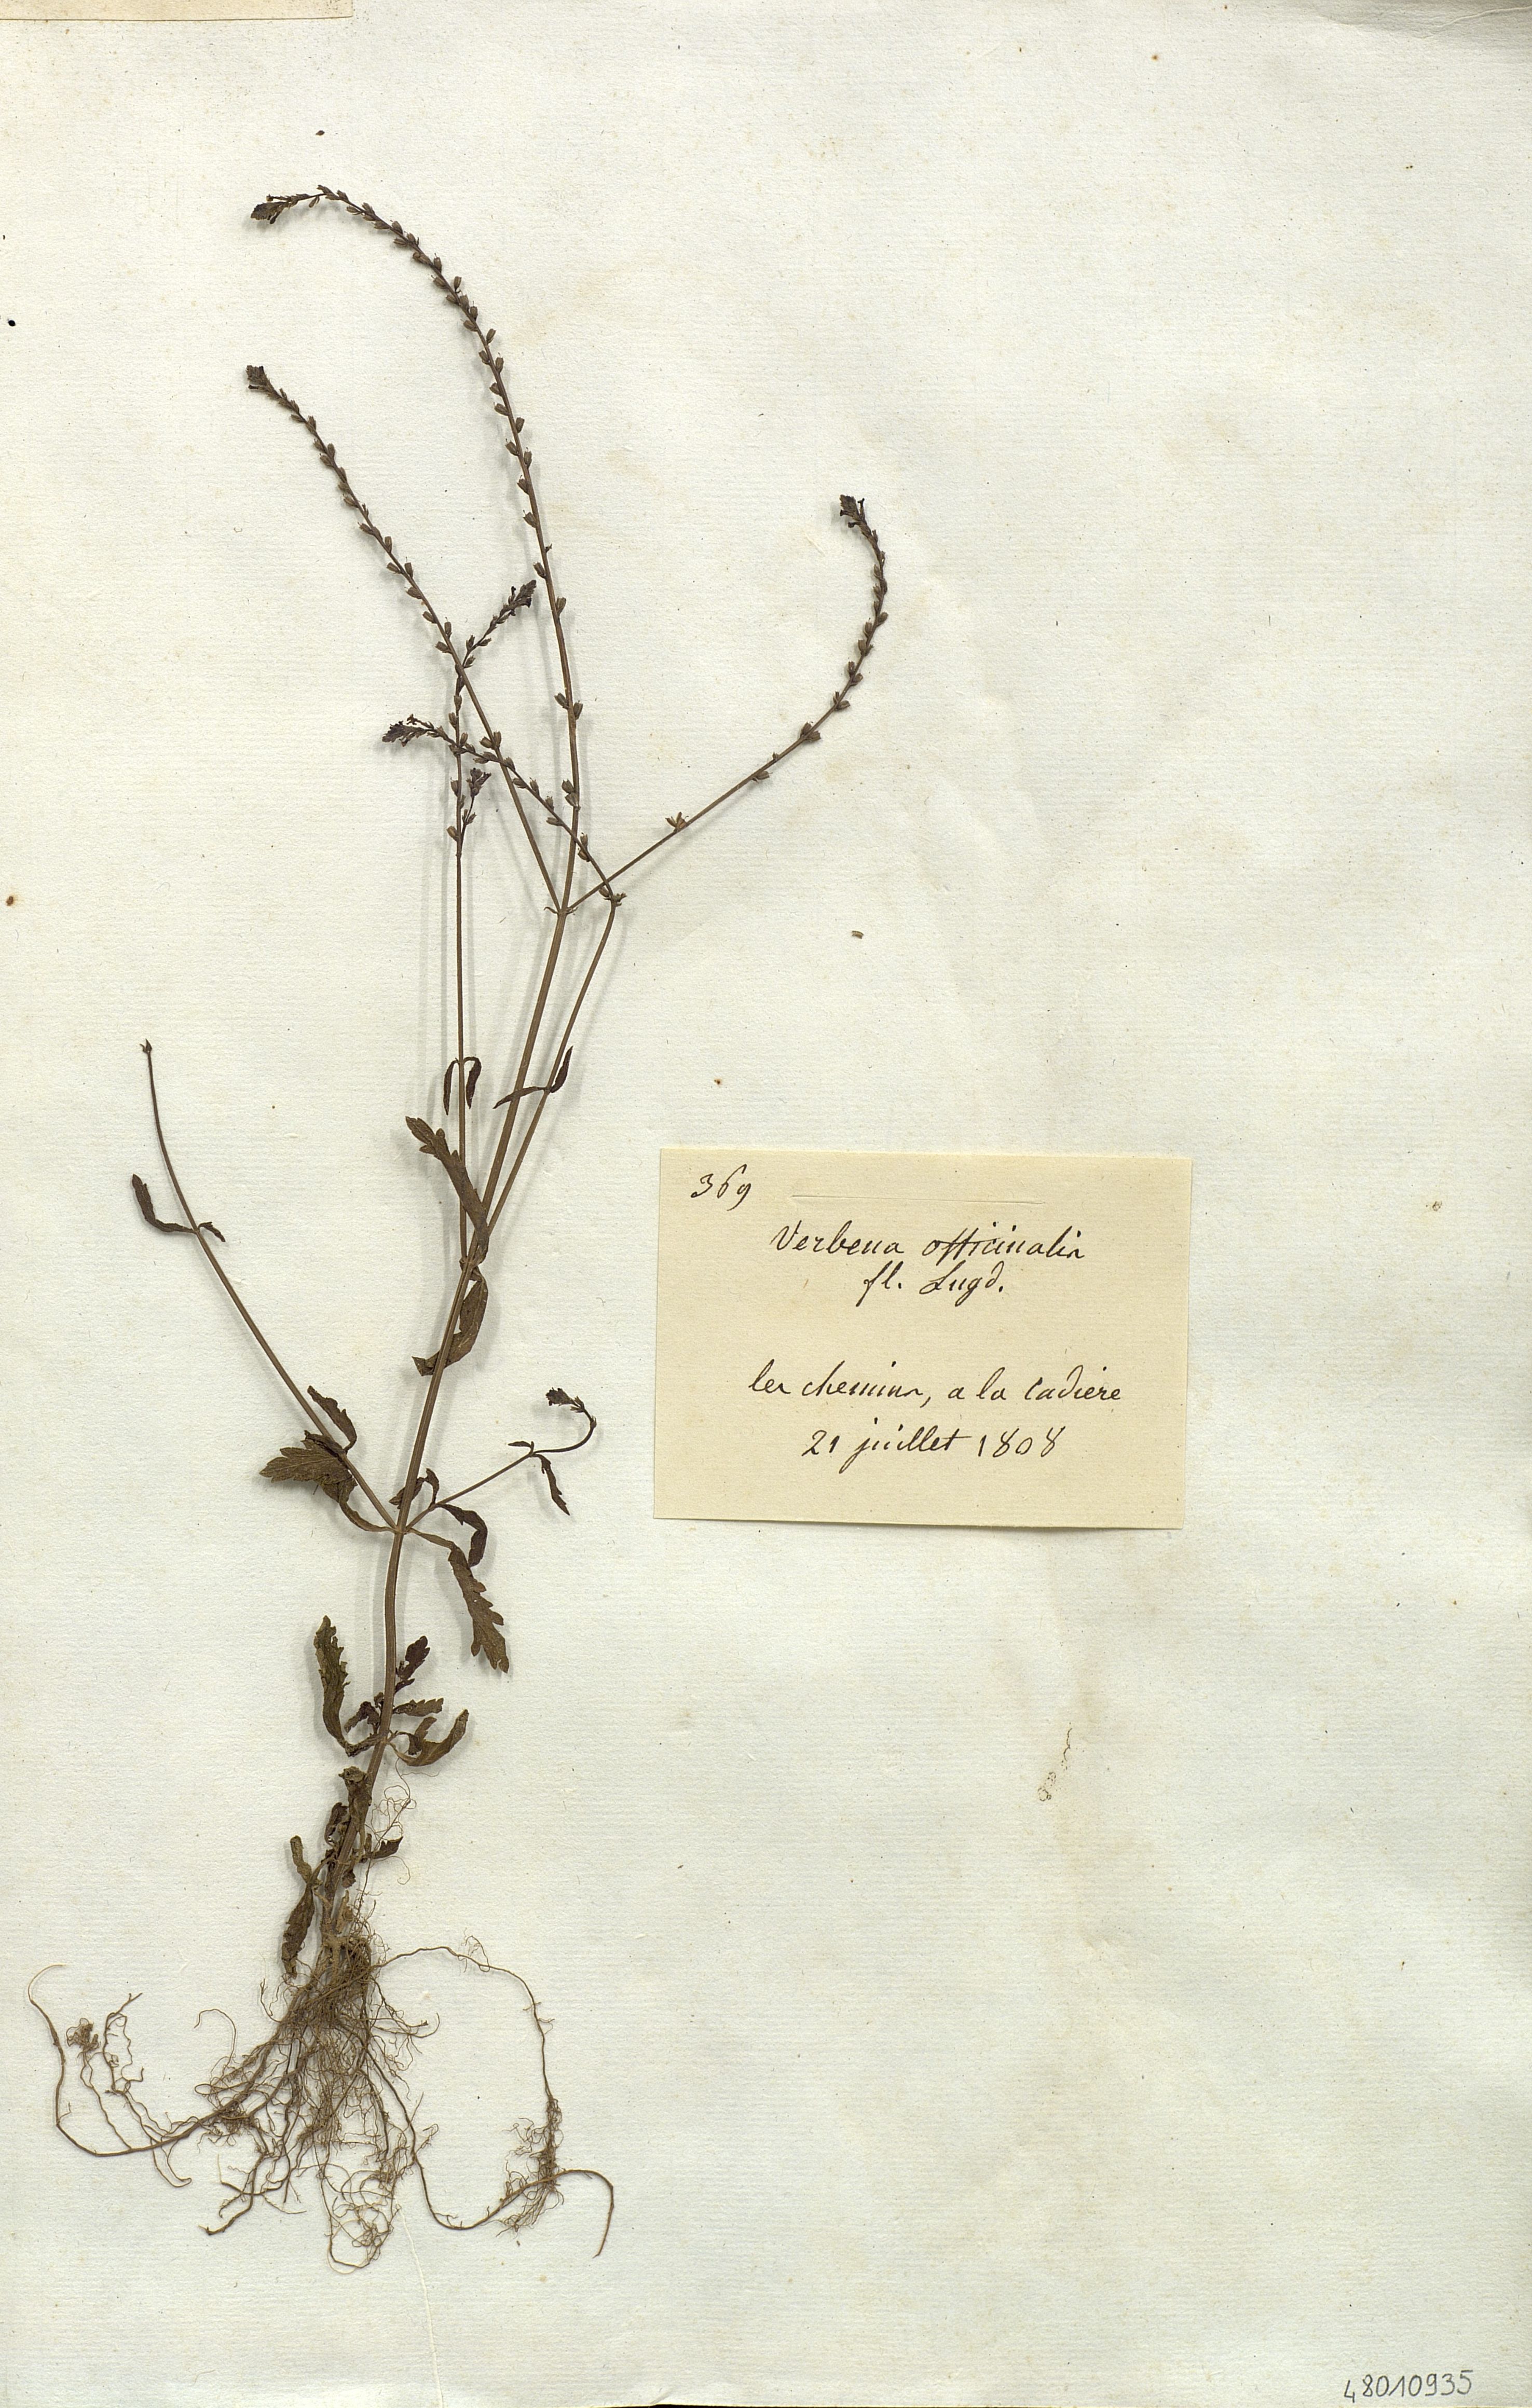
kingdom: Plantae
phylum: Tracheophyta
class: Magnoliopsida
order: Lamiales
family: Verbenaceae
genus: Verbena
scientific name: Verbena officinalis
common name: Vervain
